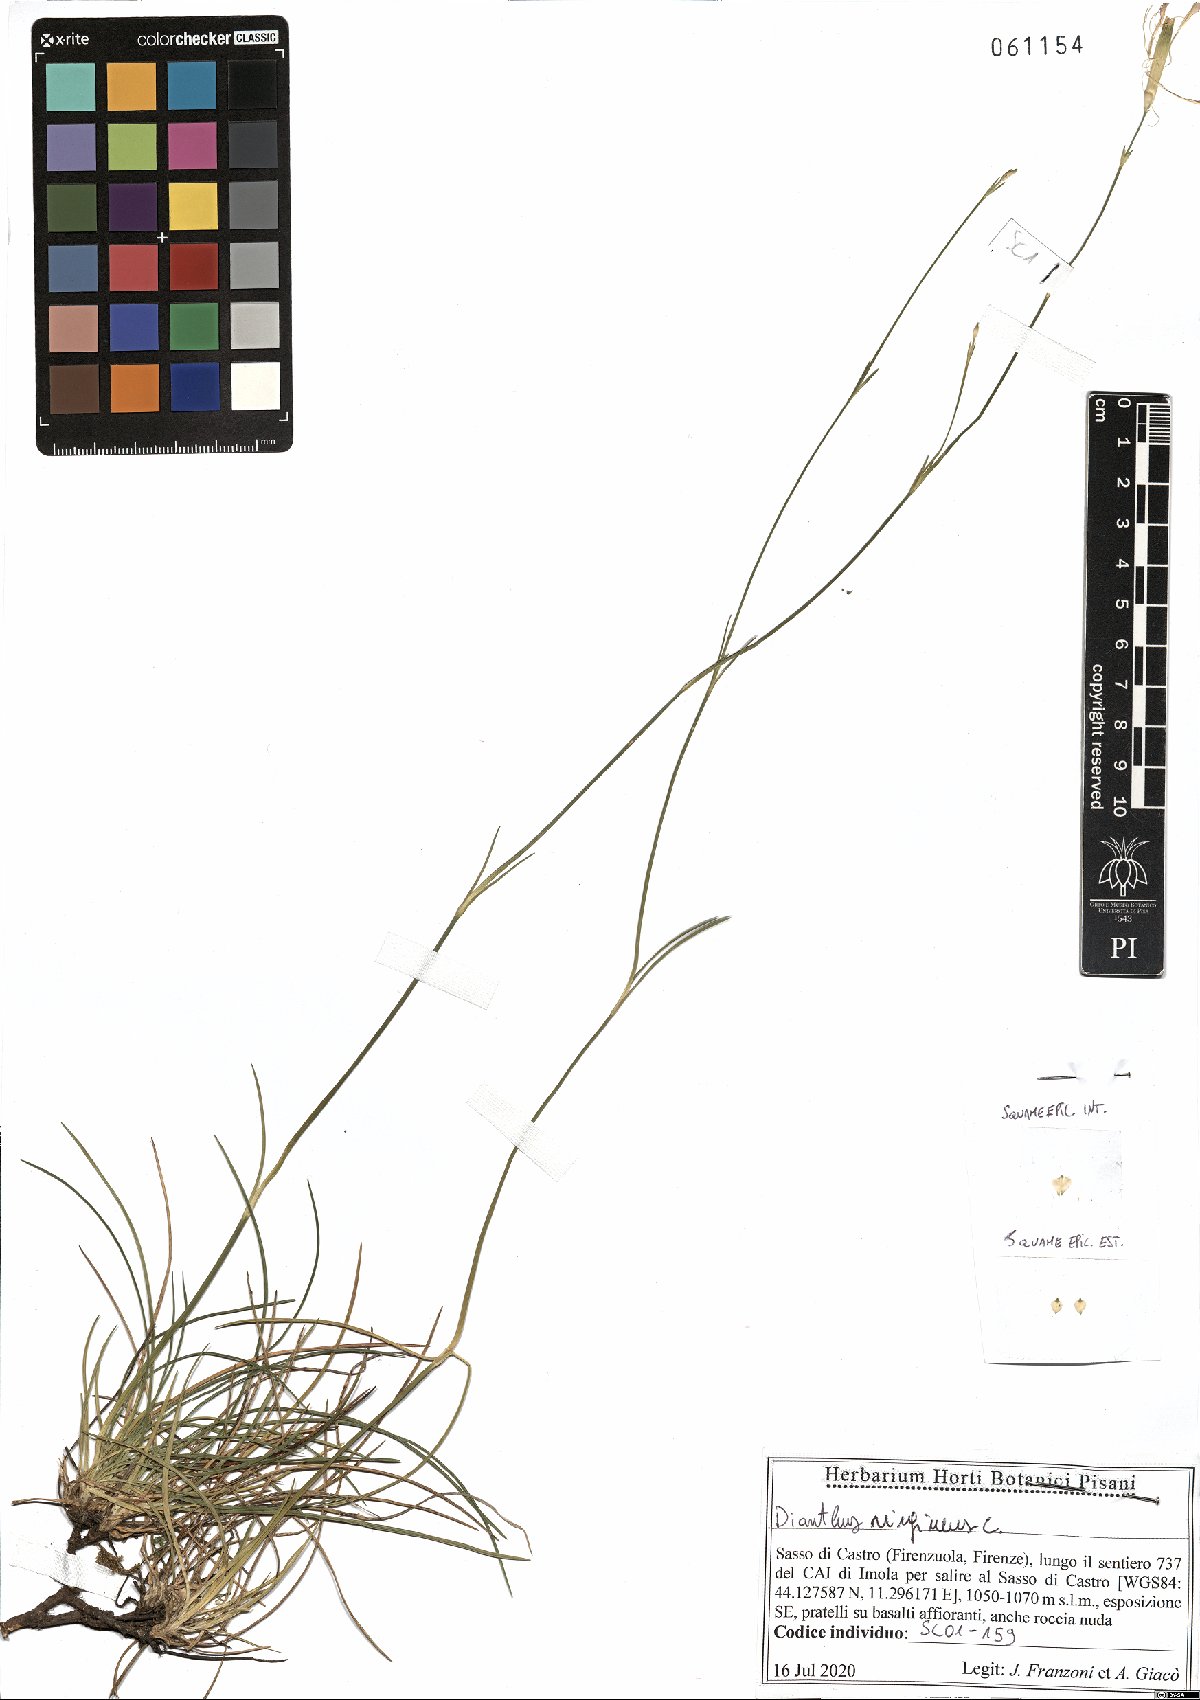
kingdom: Plantae
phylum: Tracheophyta
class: Magnoliopsida
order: Caryophyllales
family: Caryophyllaceae
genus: Dianthus
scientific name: Dianthus virgineus
